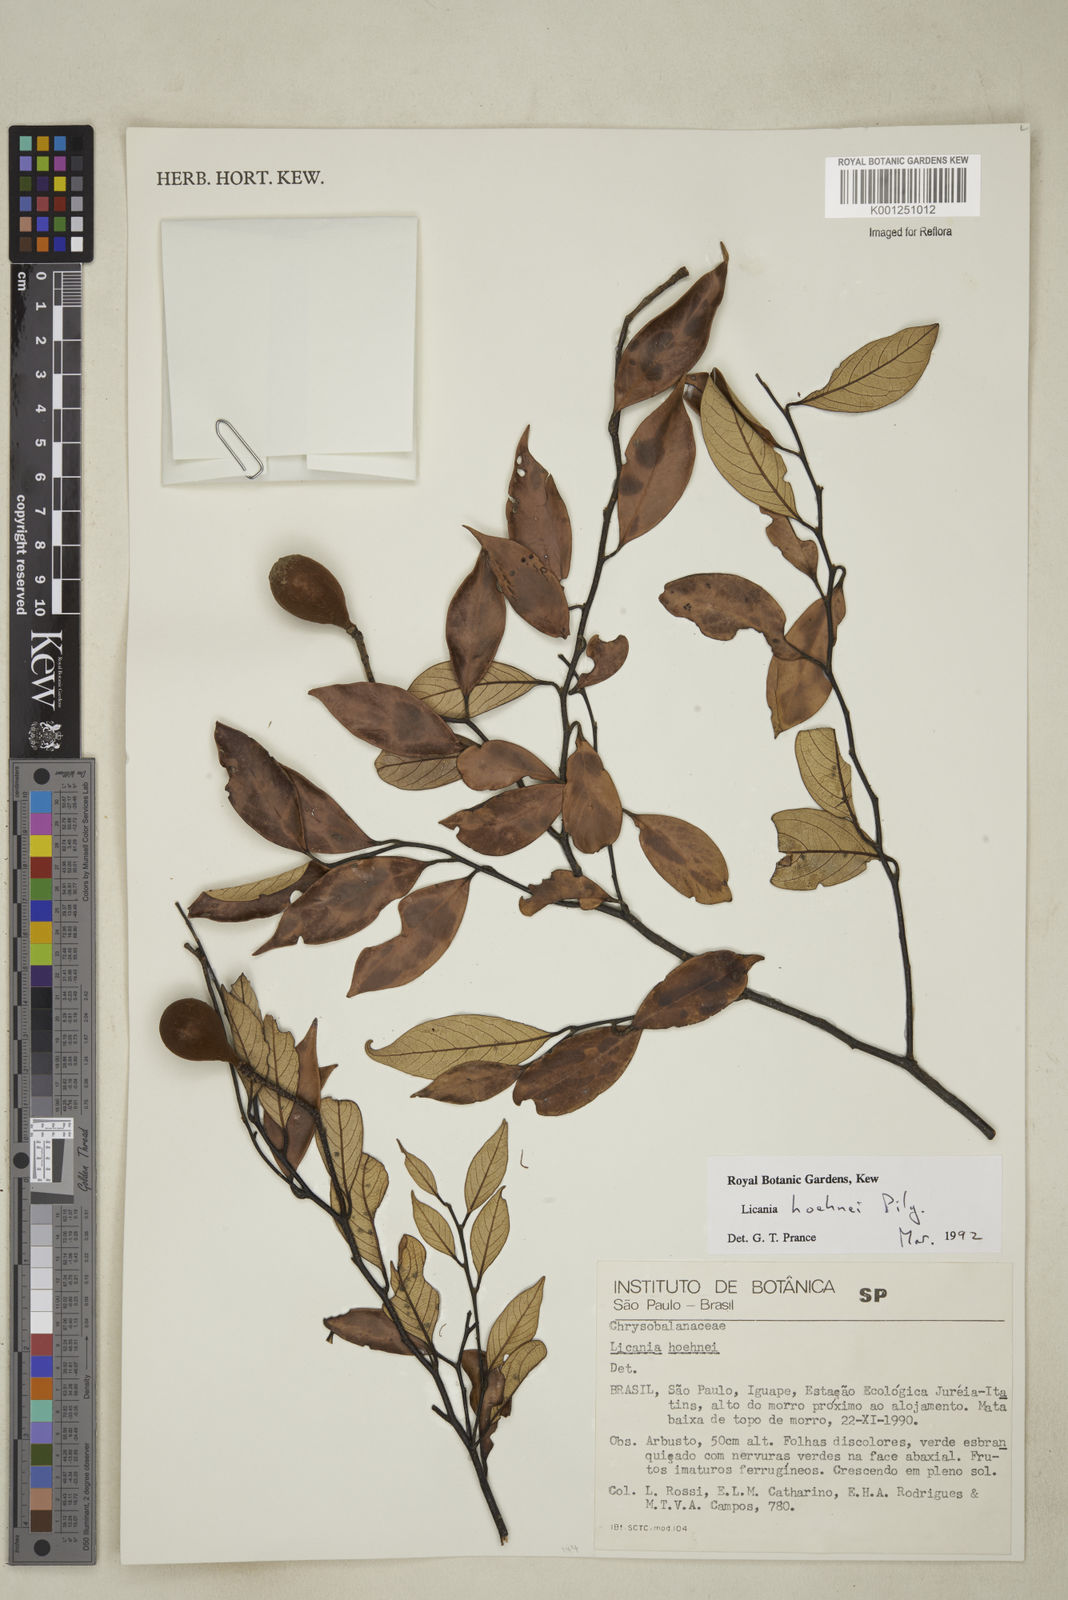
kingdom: Plantae
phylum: Tracheophyta
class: Magnoliopsida
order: Malpighiales
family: Chrysobalanaceae
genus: Licania
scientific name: Licania indurata
